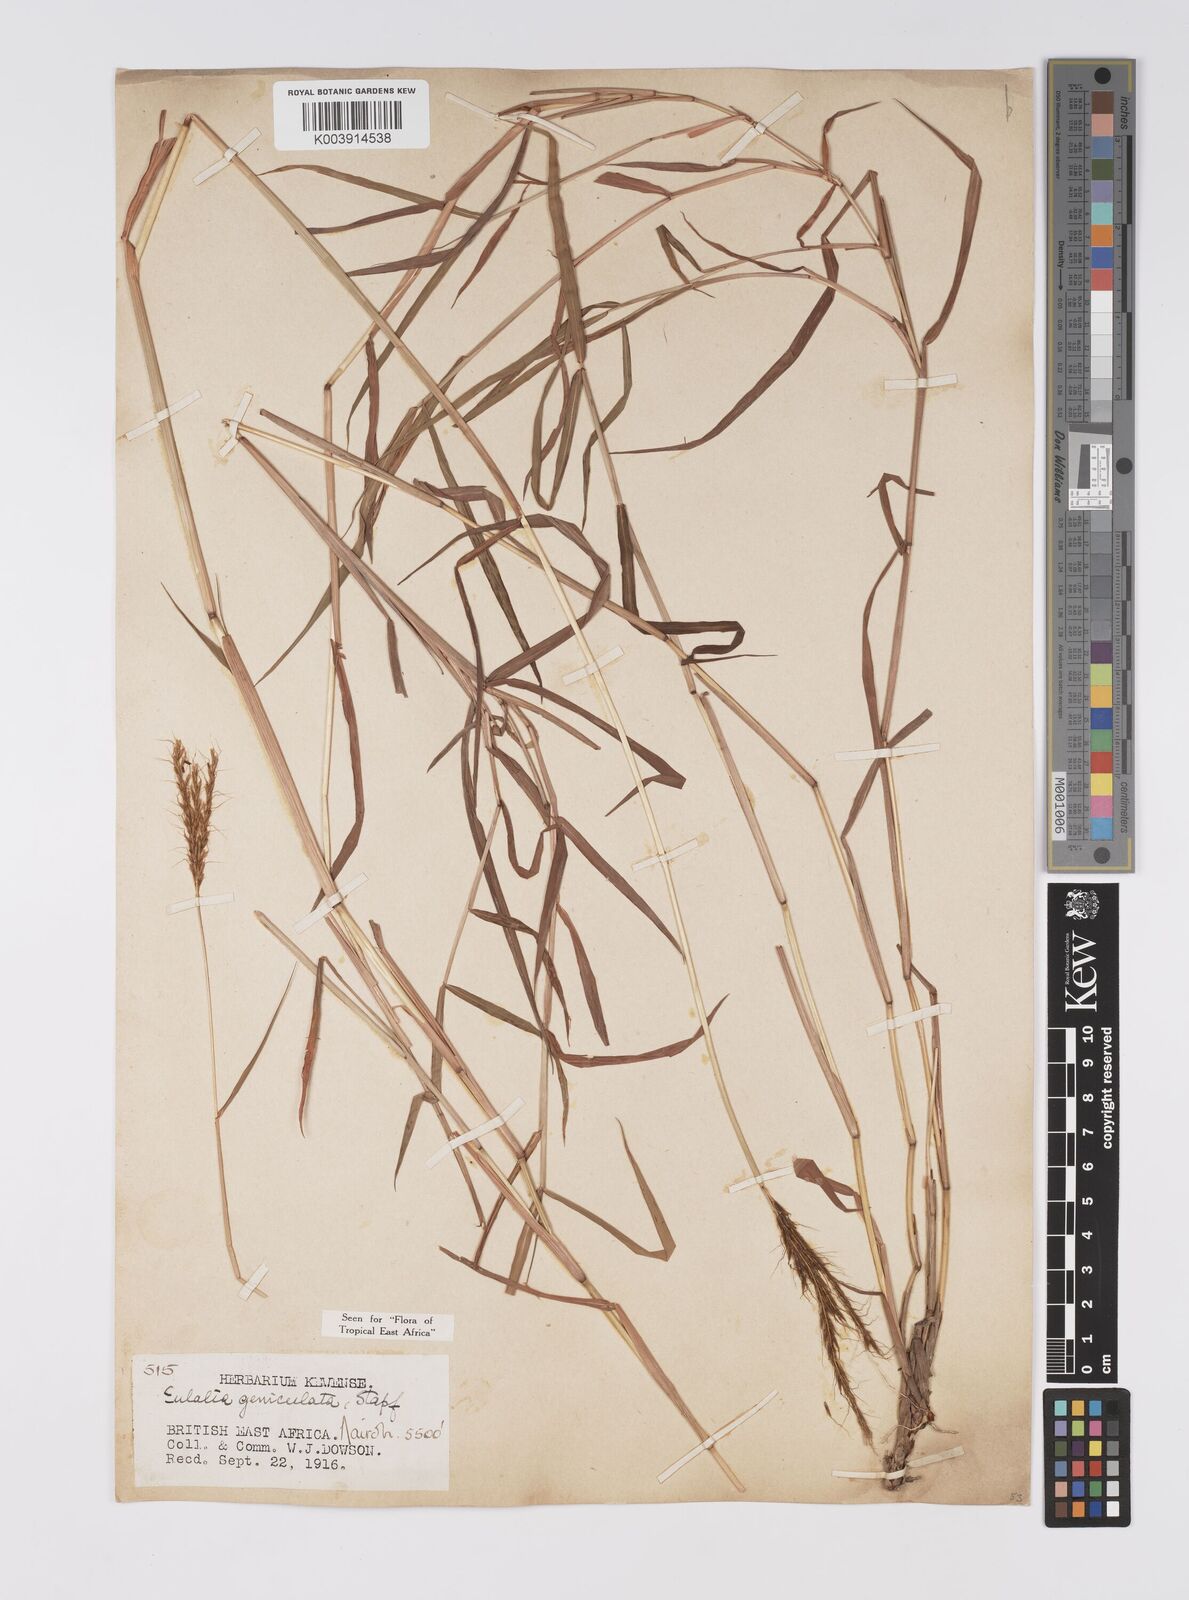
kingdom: Plantae
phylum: Tracheophyta
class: Liliopsida
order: Poales
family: Poaceae
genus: Eulalia
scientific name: Eulalia aurea
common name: Silky browntop
